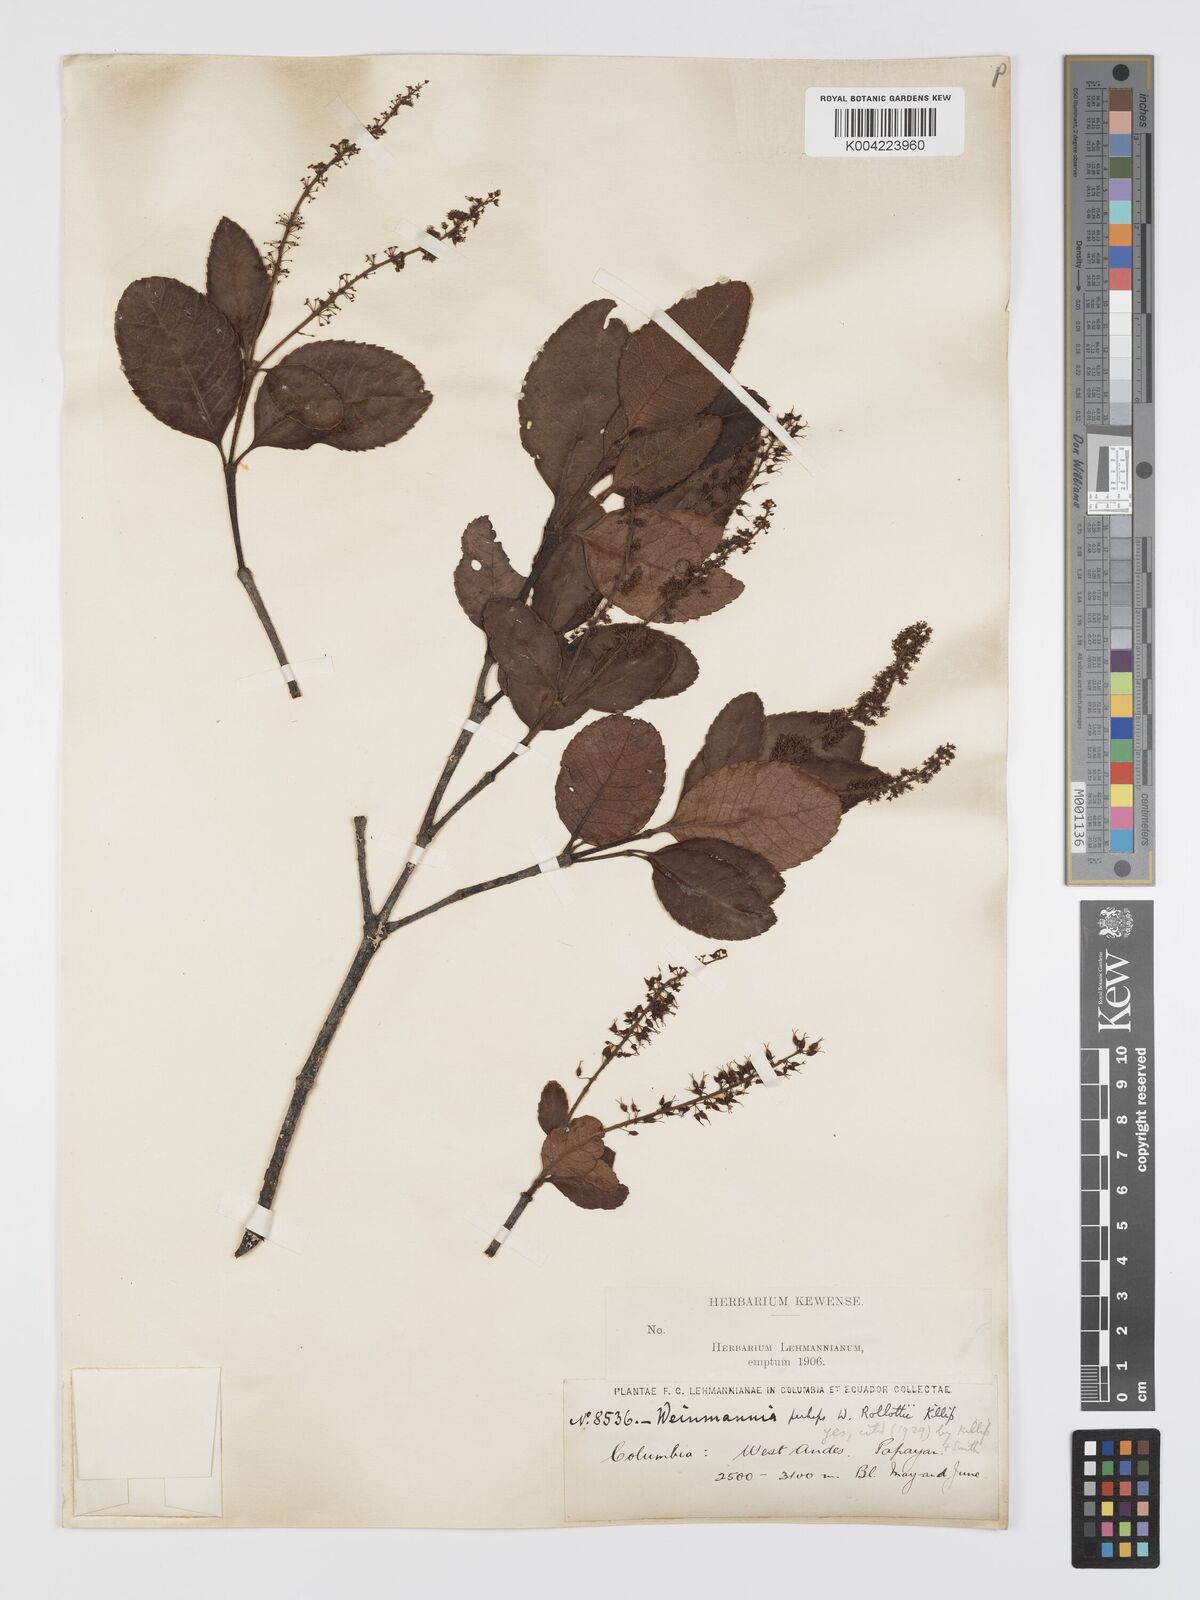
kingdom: Plantae
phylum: Tracheophyta
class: Magnoliopsida
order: Oxalidales
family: Cunoniaceae
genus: Weinmannia
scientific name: Weinmannia rollottii
